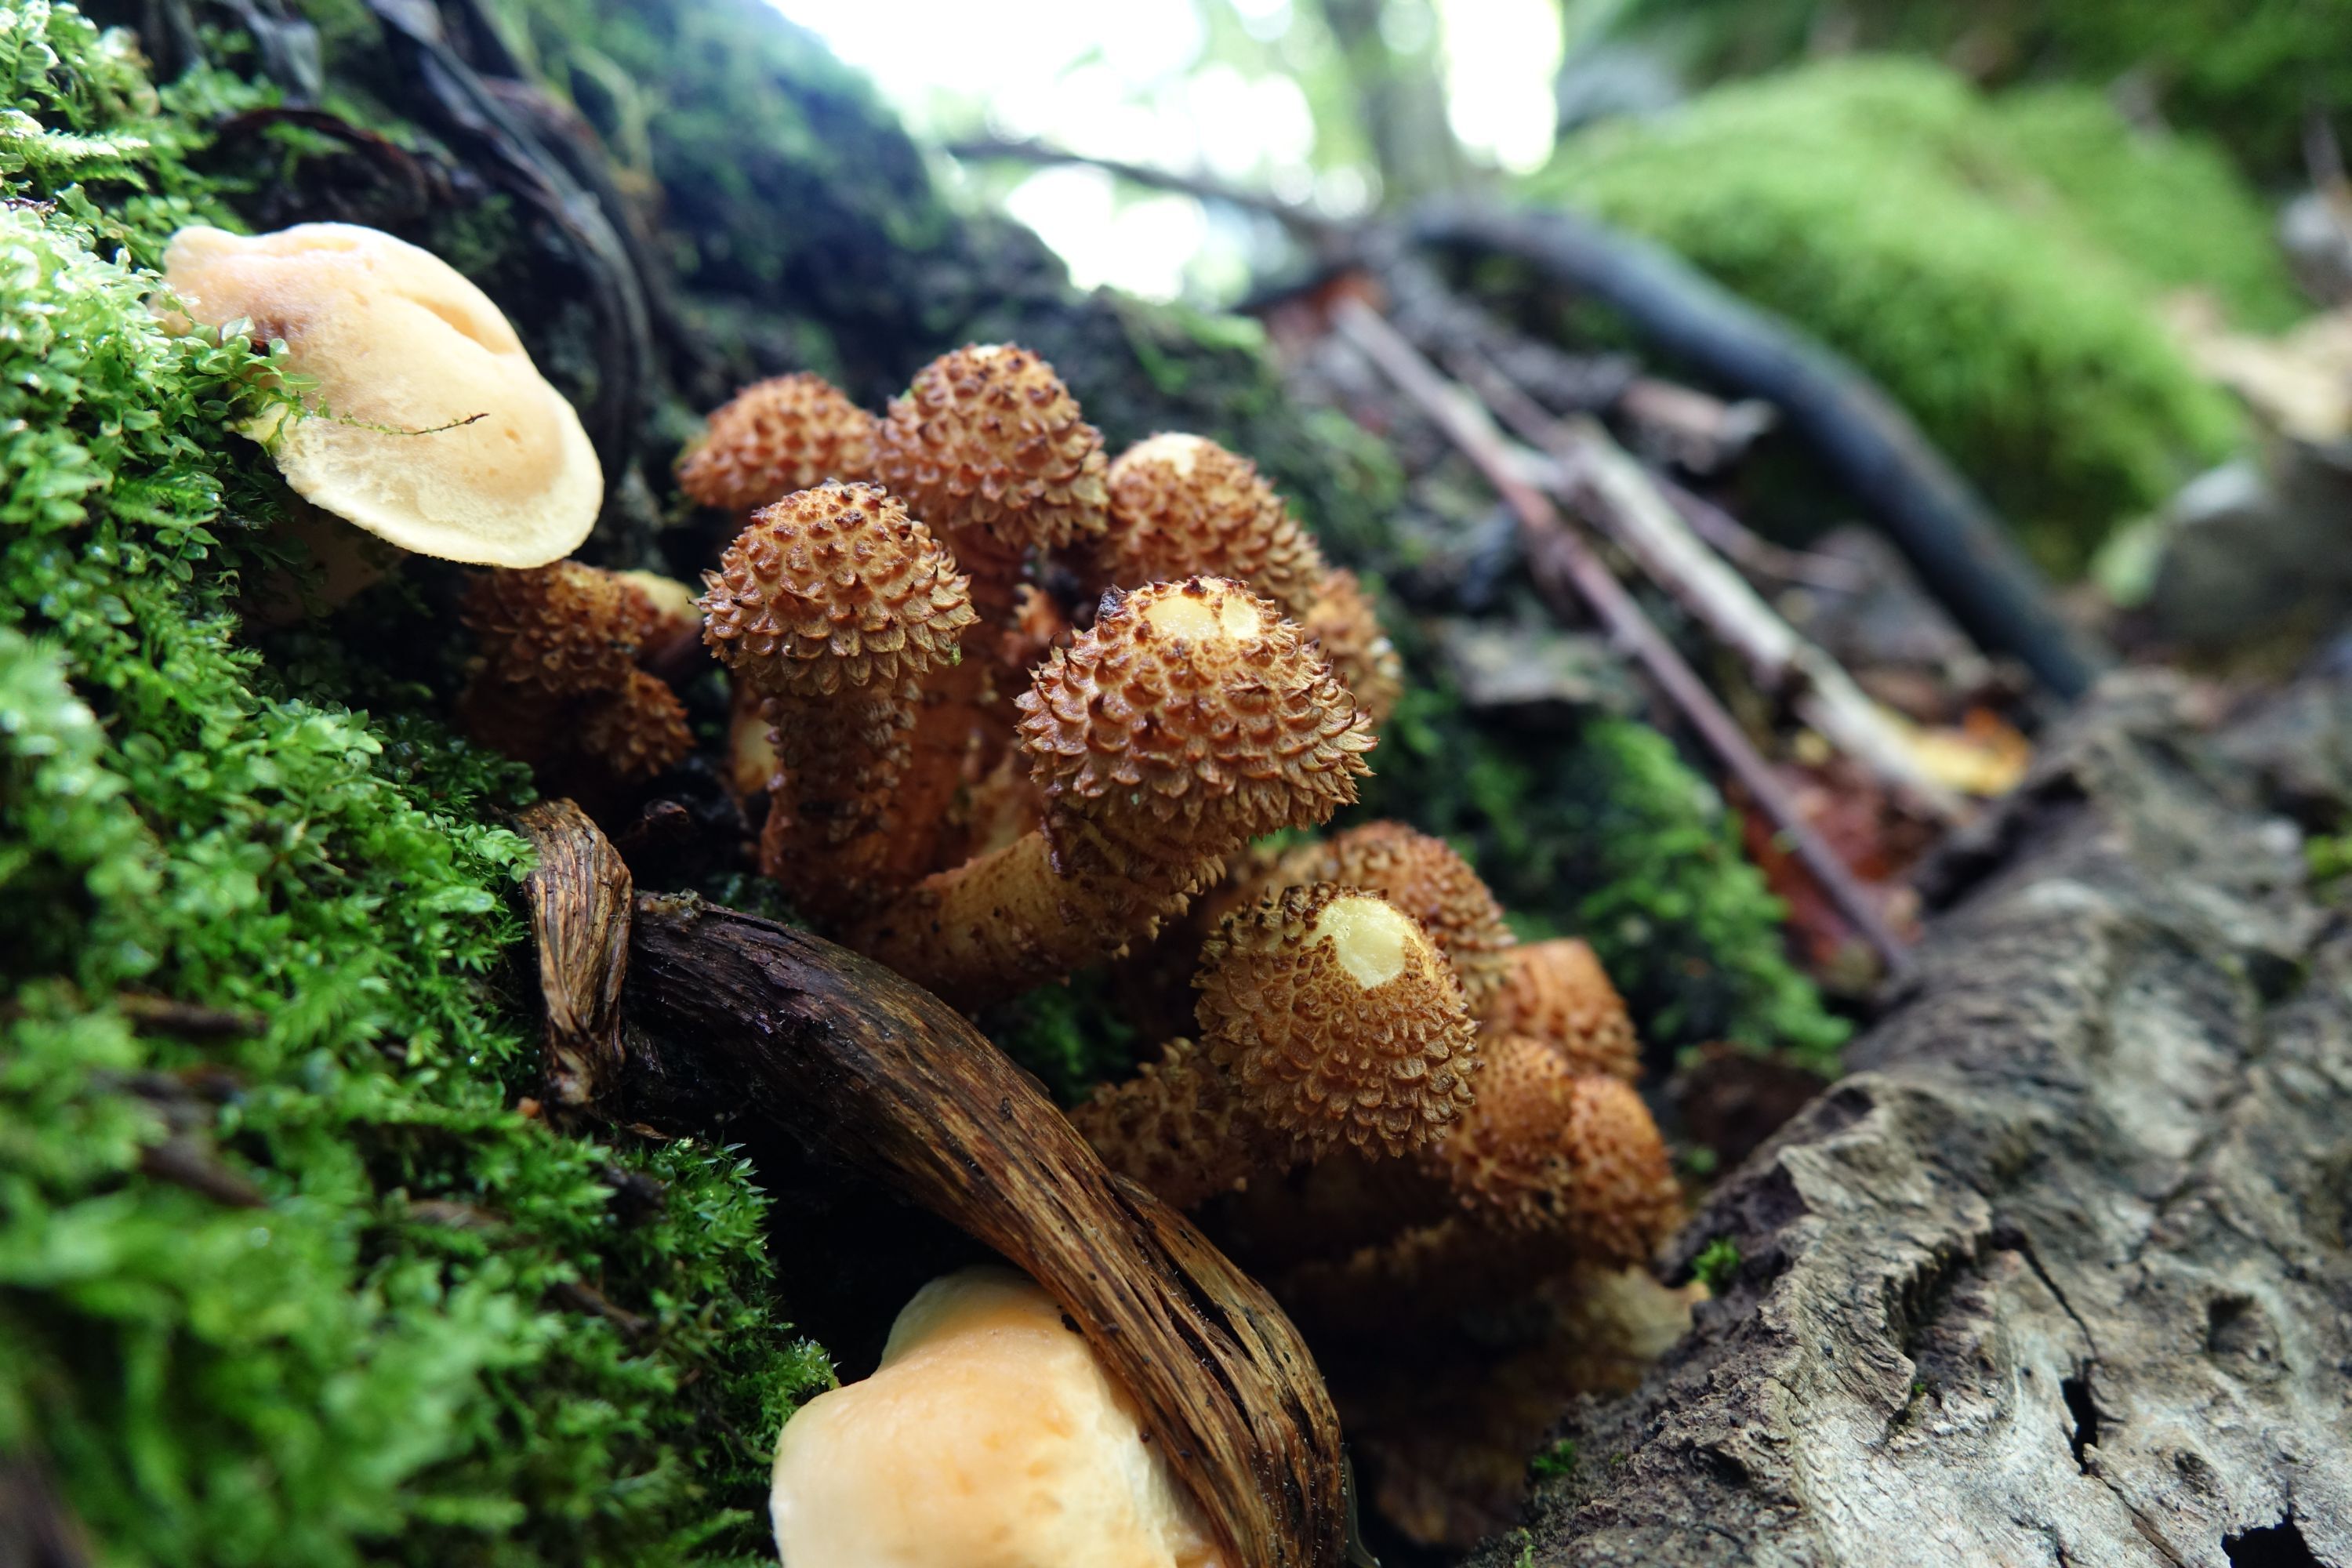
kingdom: Fungi
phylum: Basidiomycota
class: Agaricomycetes
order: Agaricales
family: Strophariaceae
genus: Pholiota
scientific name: Pholiota squarrosa
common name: Shaggy pholiota
